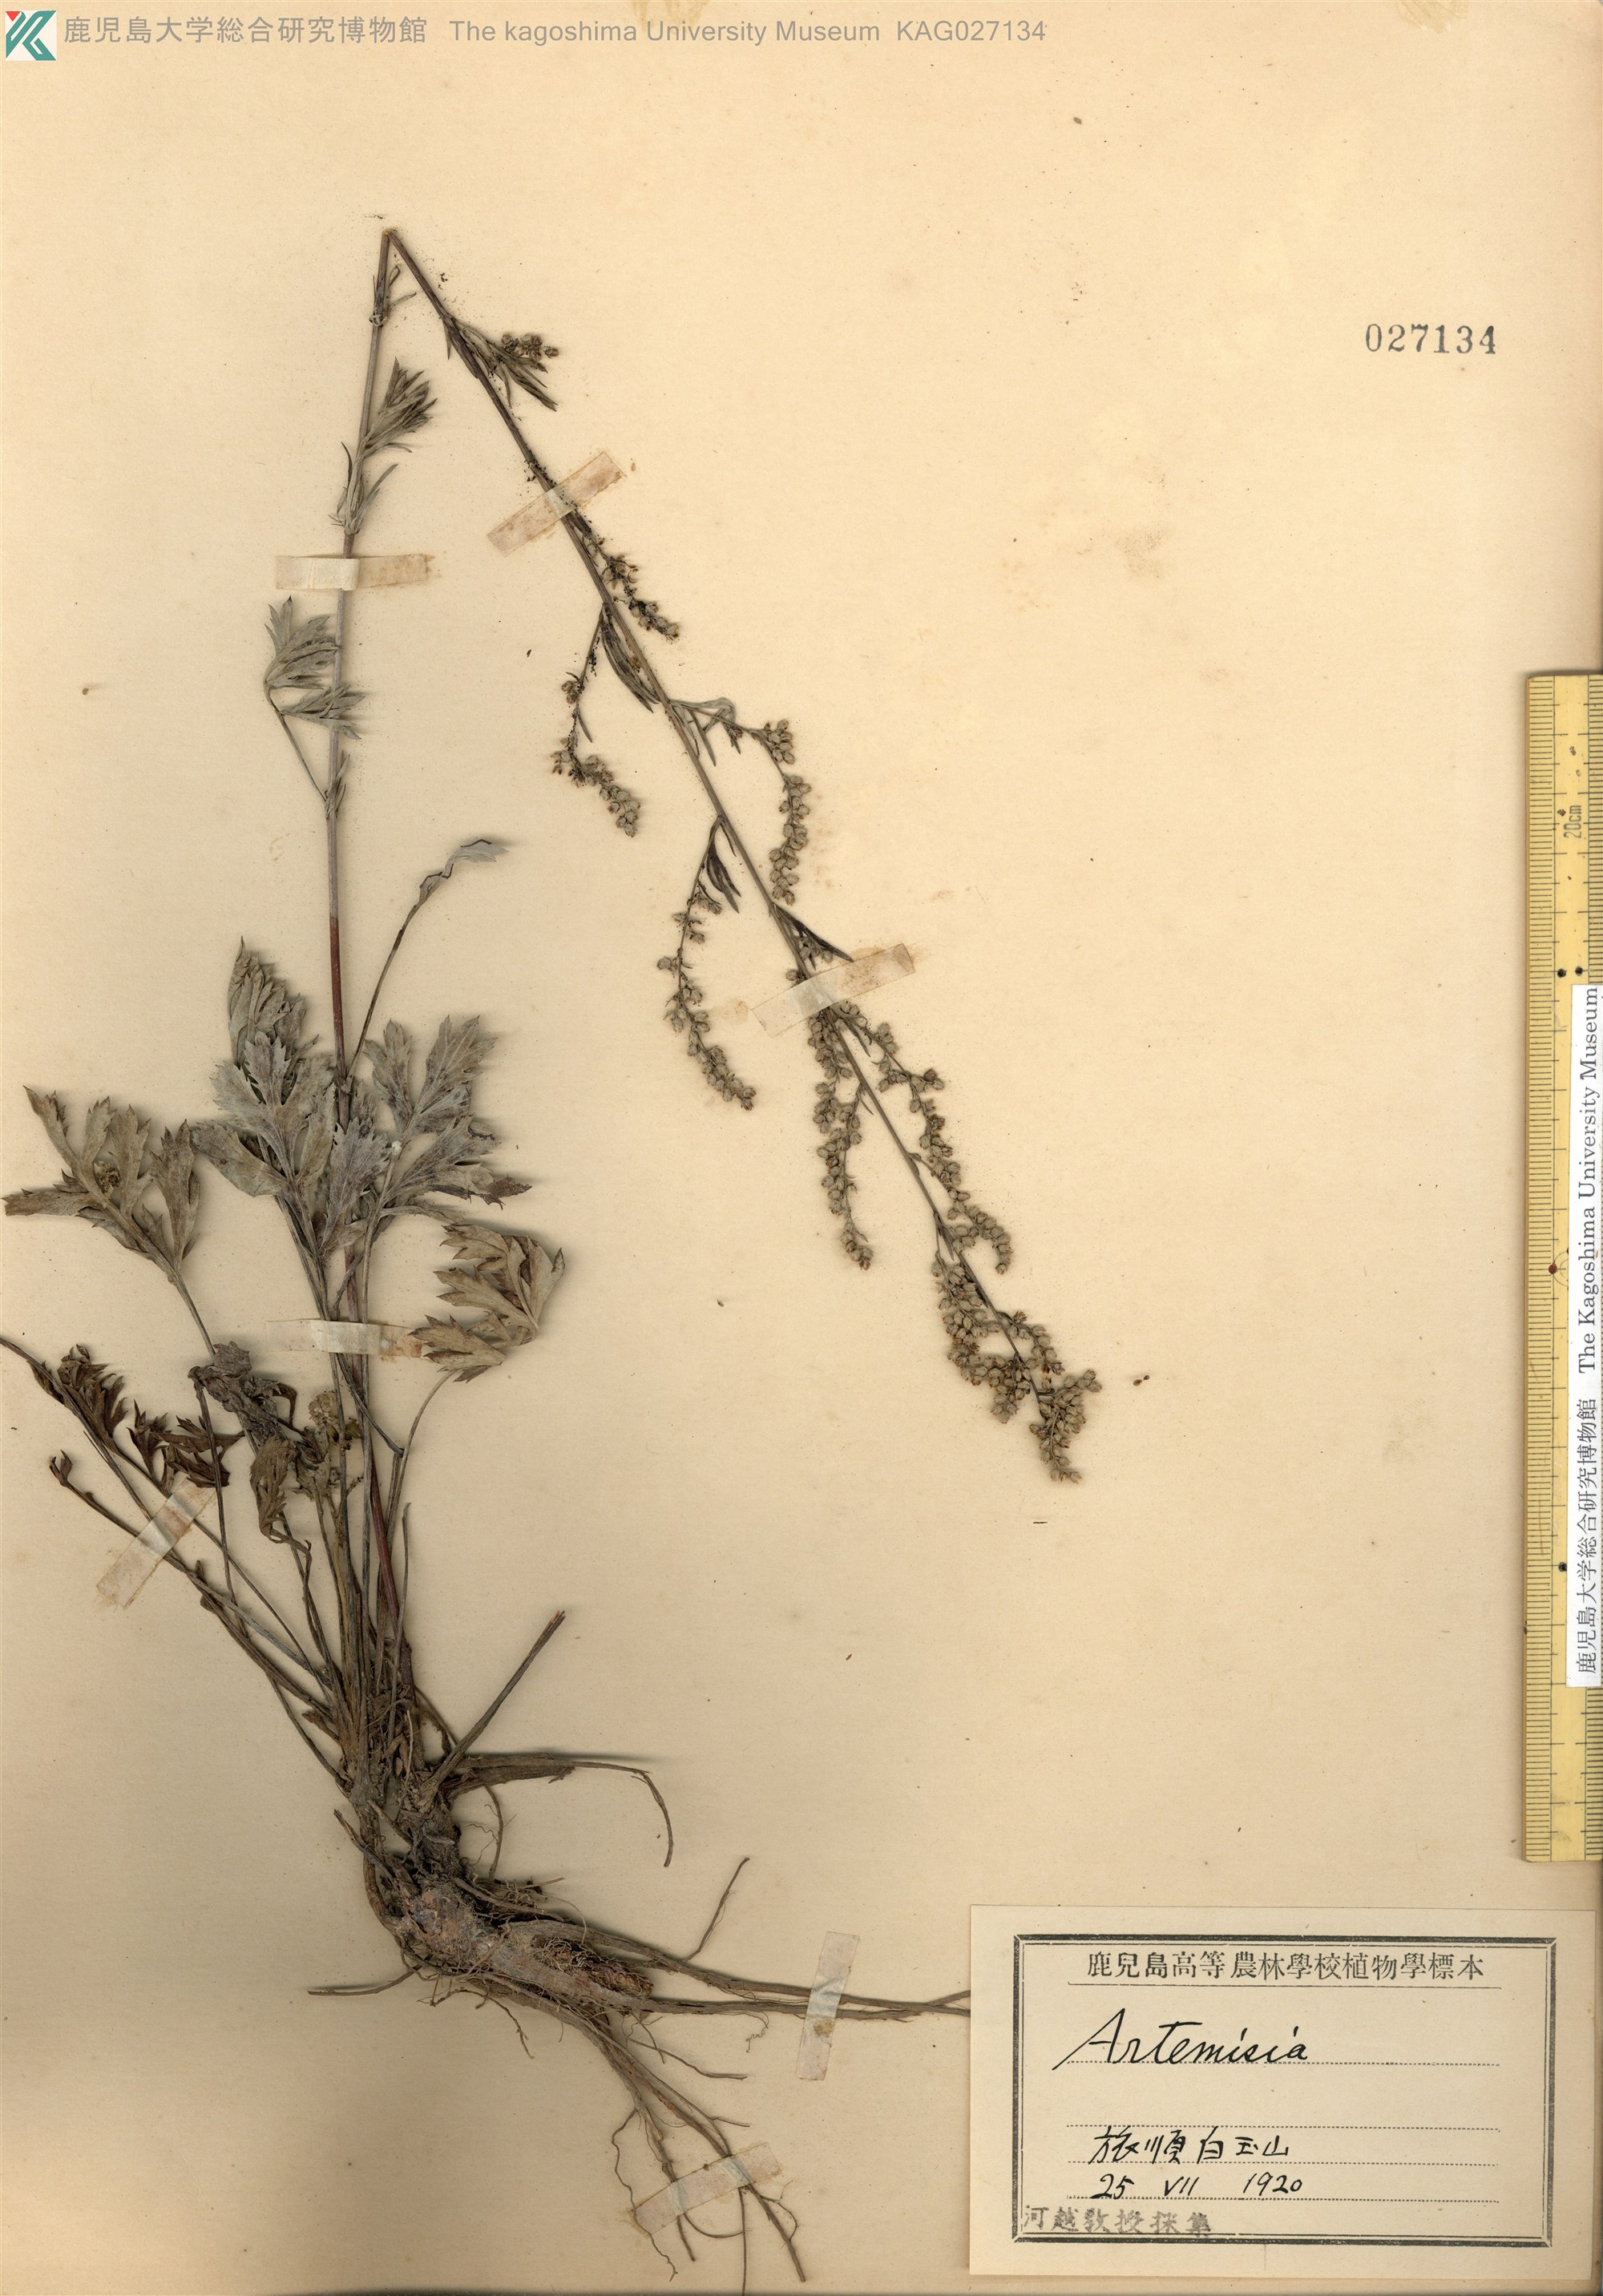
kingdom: Plantae
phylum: Tracheophyta
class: Magnoliopsida
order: Asterales
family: Asteraceae
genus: Artemisia
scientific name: Artemisia sacrorum
